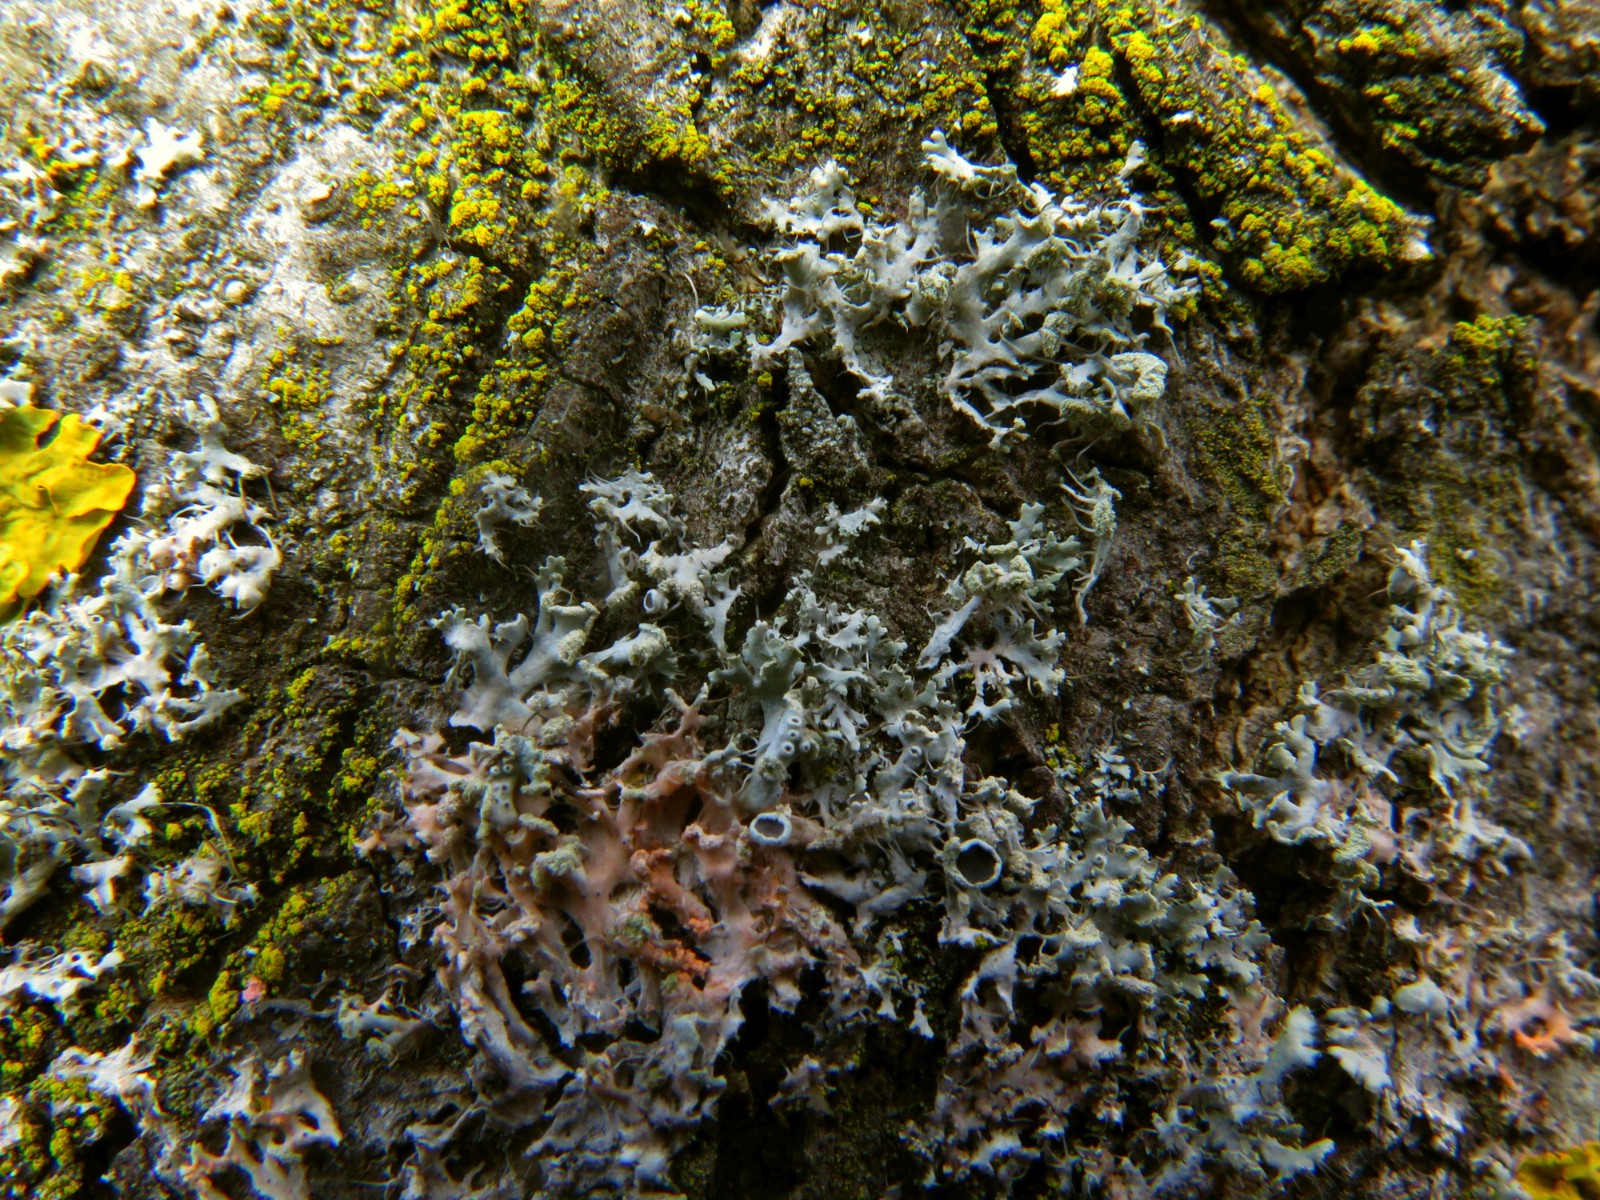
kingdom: Fungi
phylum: Basidiomycota
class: Agaricomycetes
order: Corticiales
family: Corticiaceae
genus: Erythricium
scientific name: Erythricium aurantiacum
